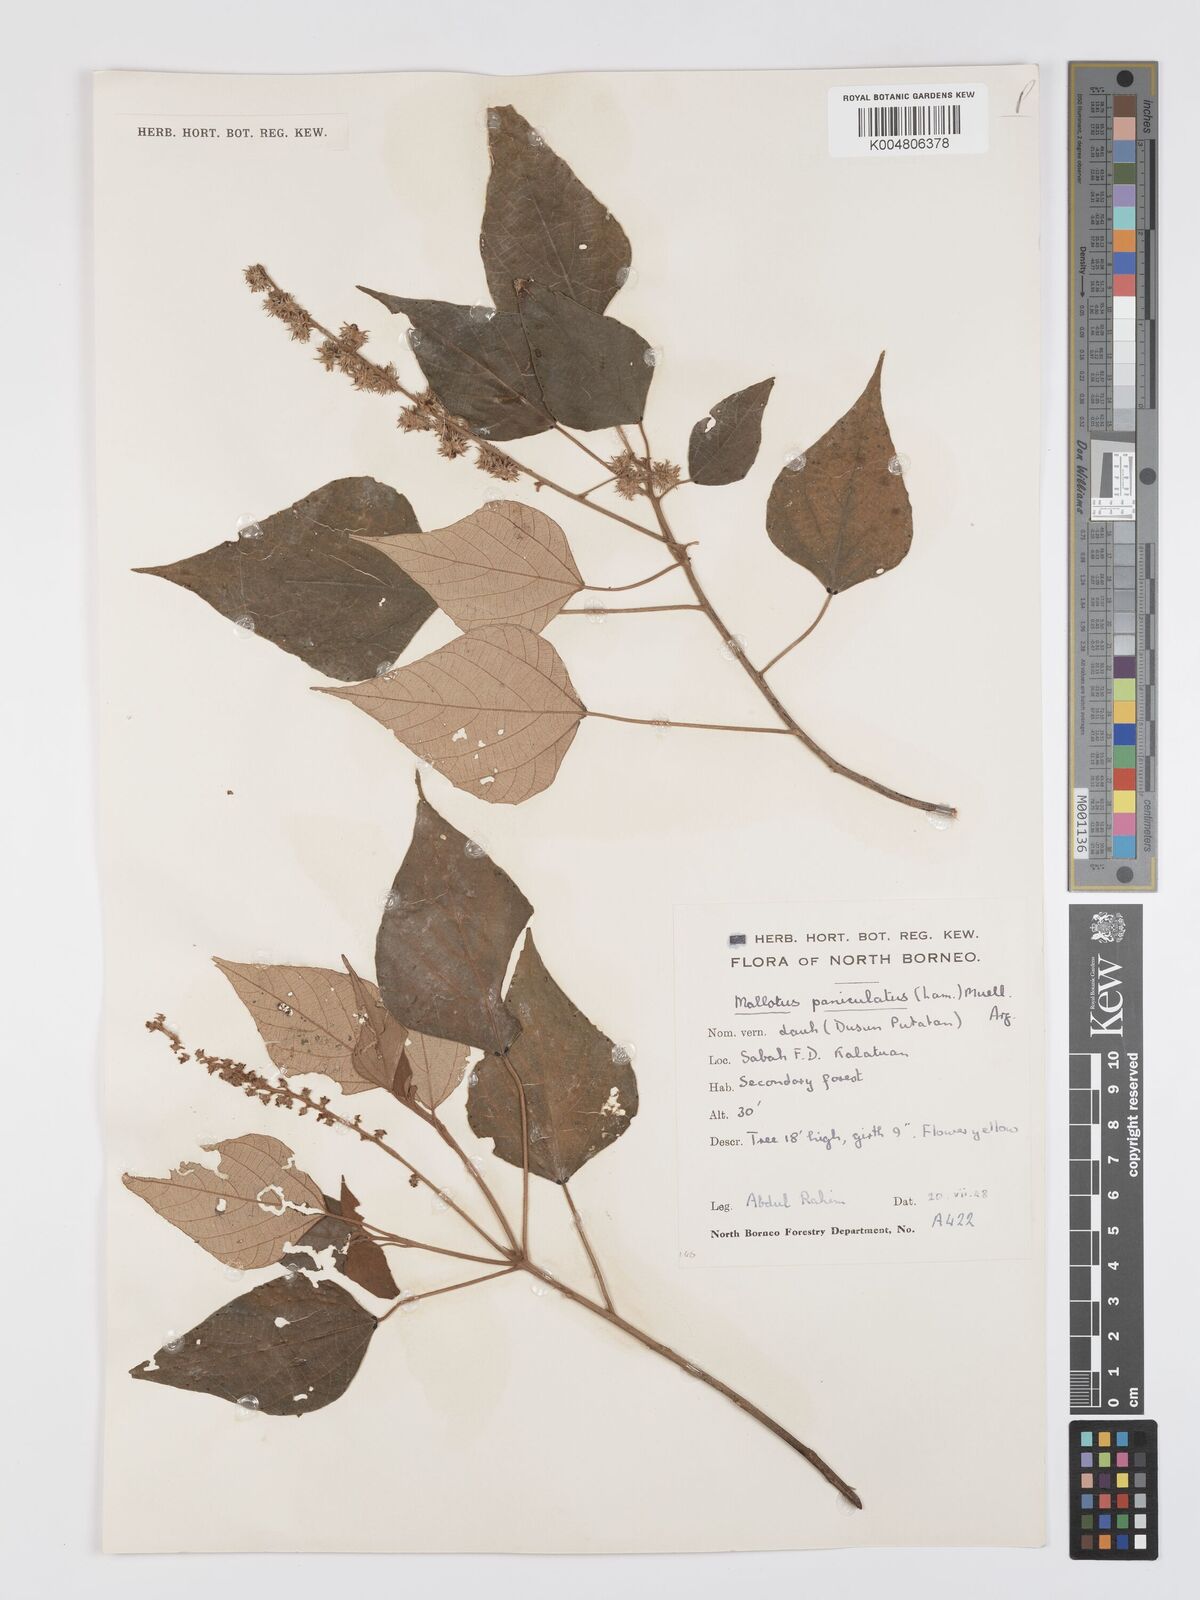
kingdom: Plantae
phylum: Tracheophyta
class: Magnoliopsida
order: Malpighiales
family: Euphorbiaceae
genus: Mallotus
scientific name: Mallotus paniculatus
